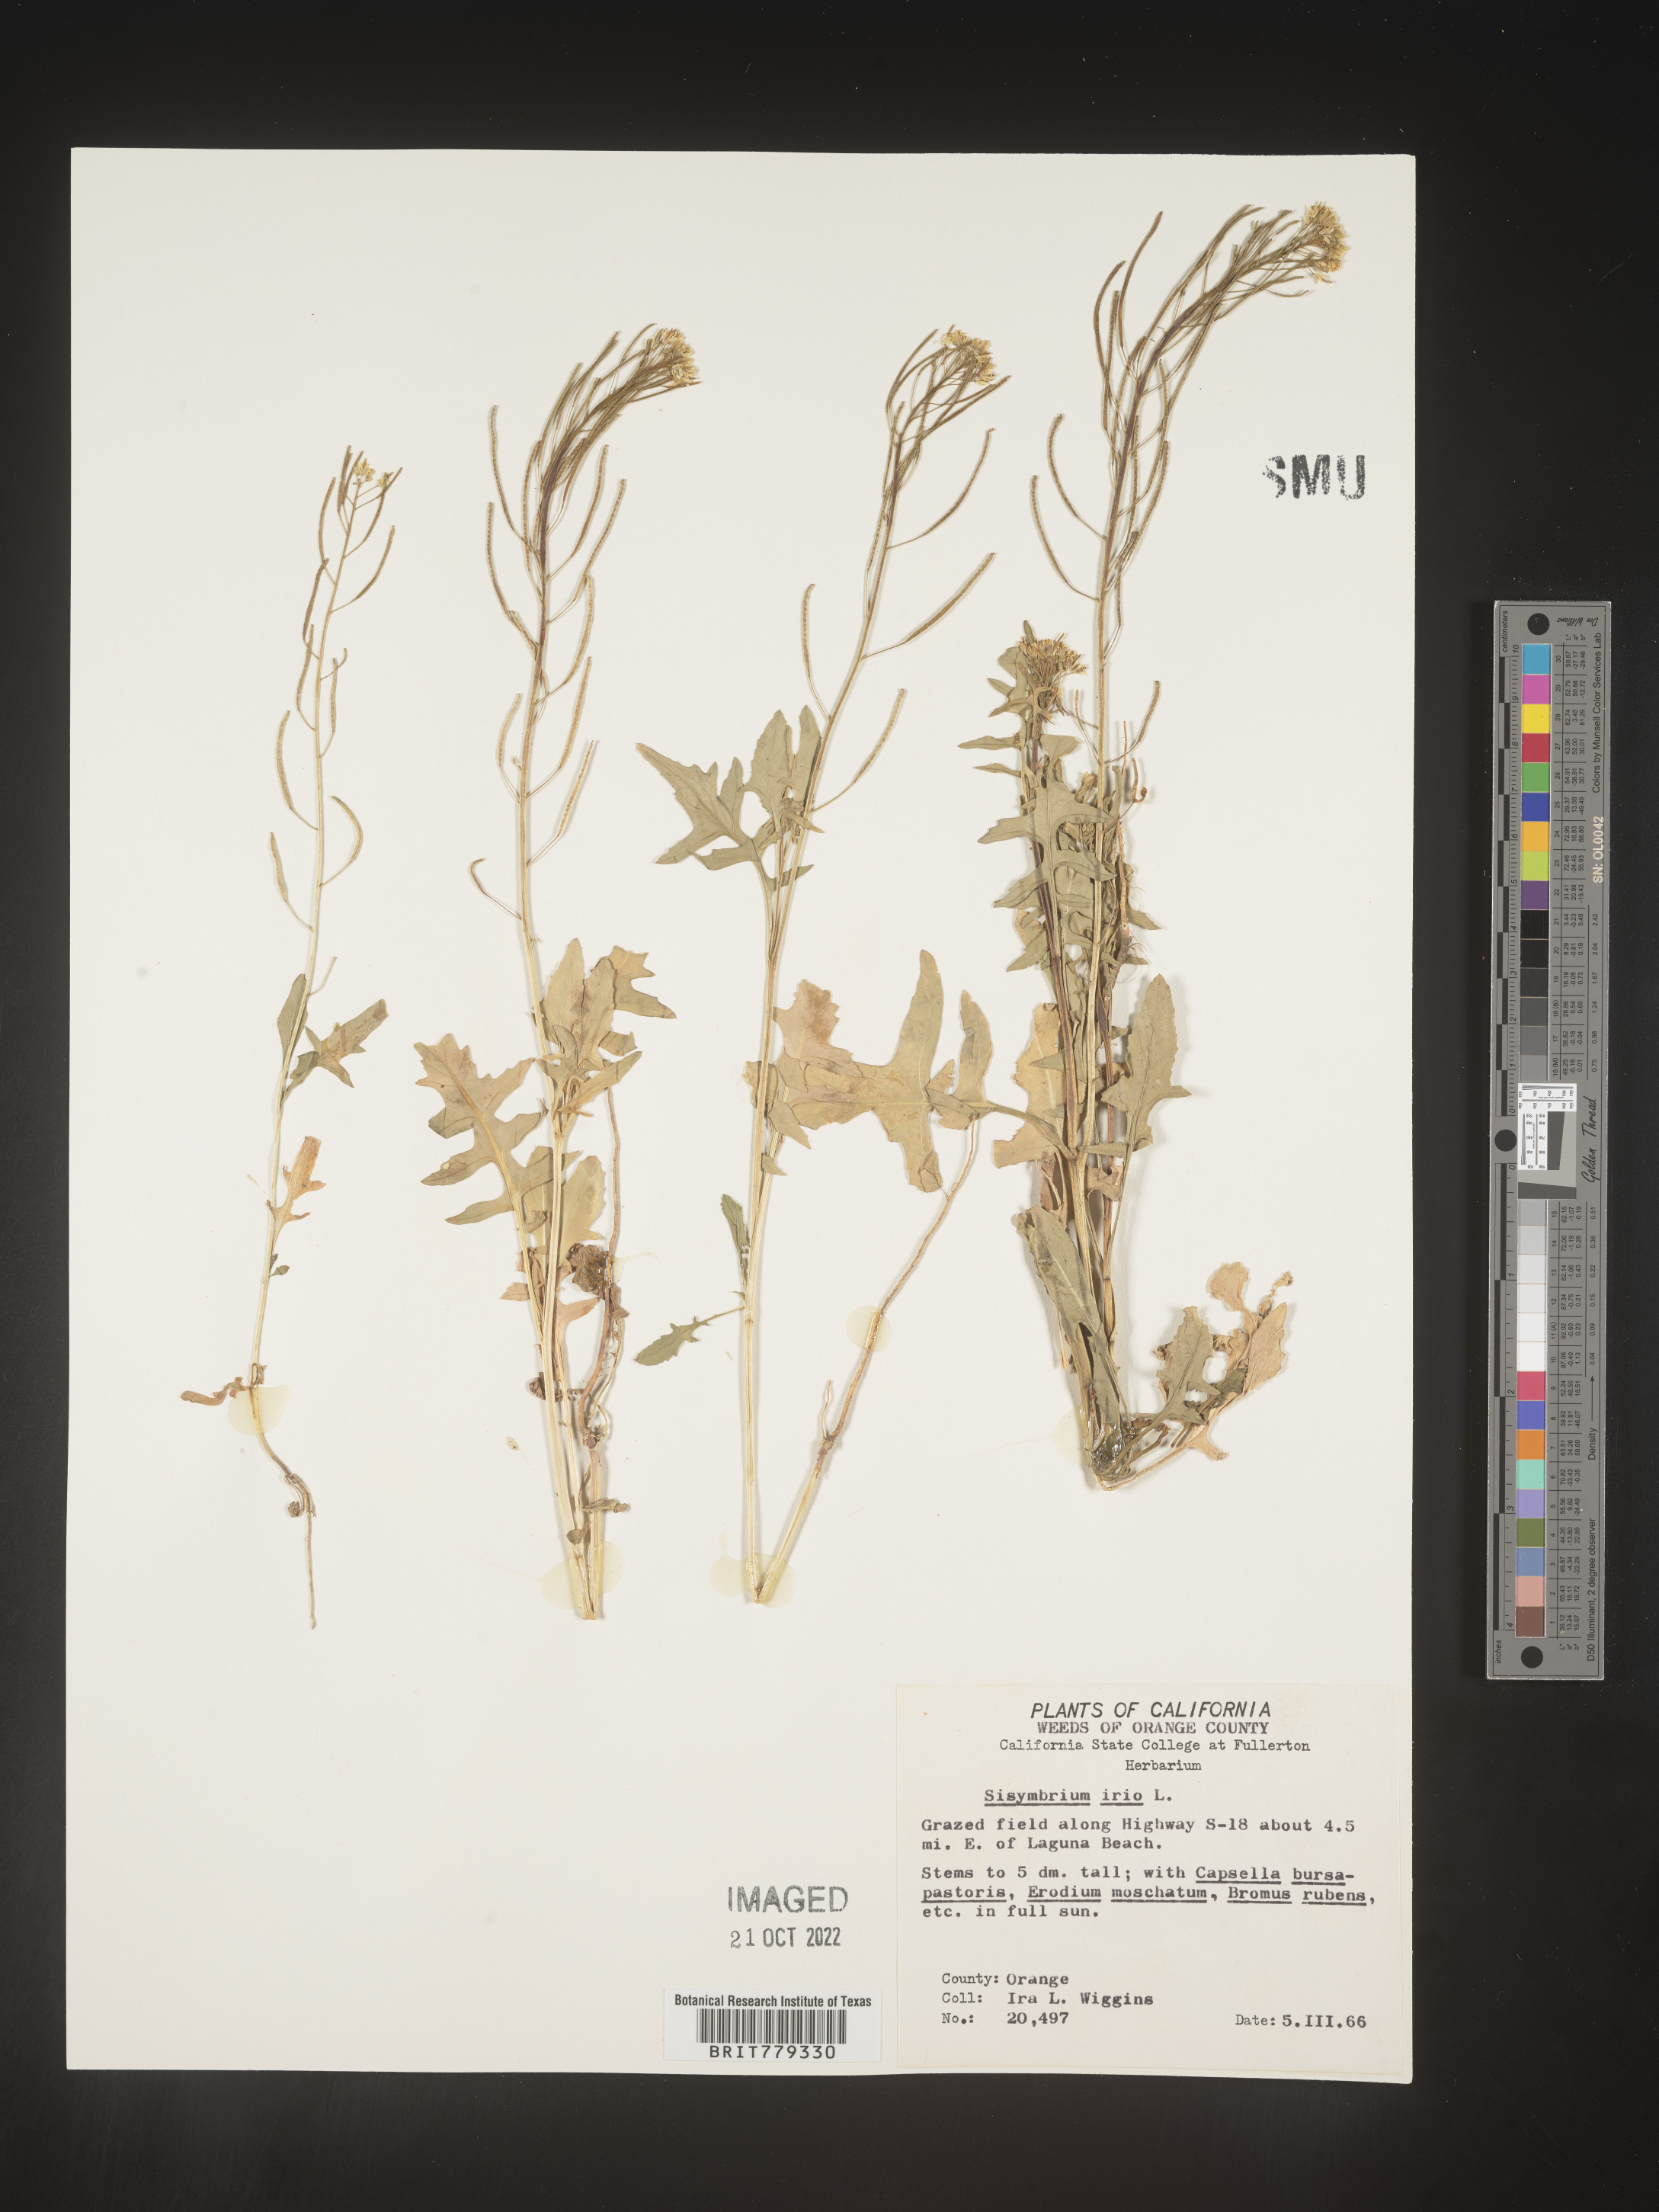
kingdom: Plantae
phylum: Tracheophyta
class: Magnoliopsida
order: Brassicales
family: Brassicaceae
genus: Sisymbrium
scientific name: Sisymbrium
